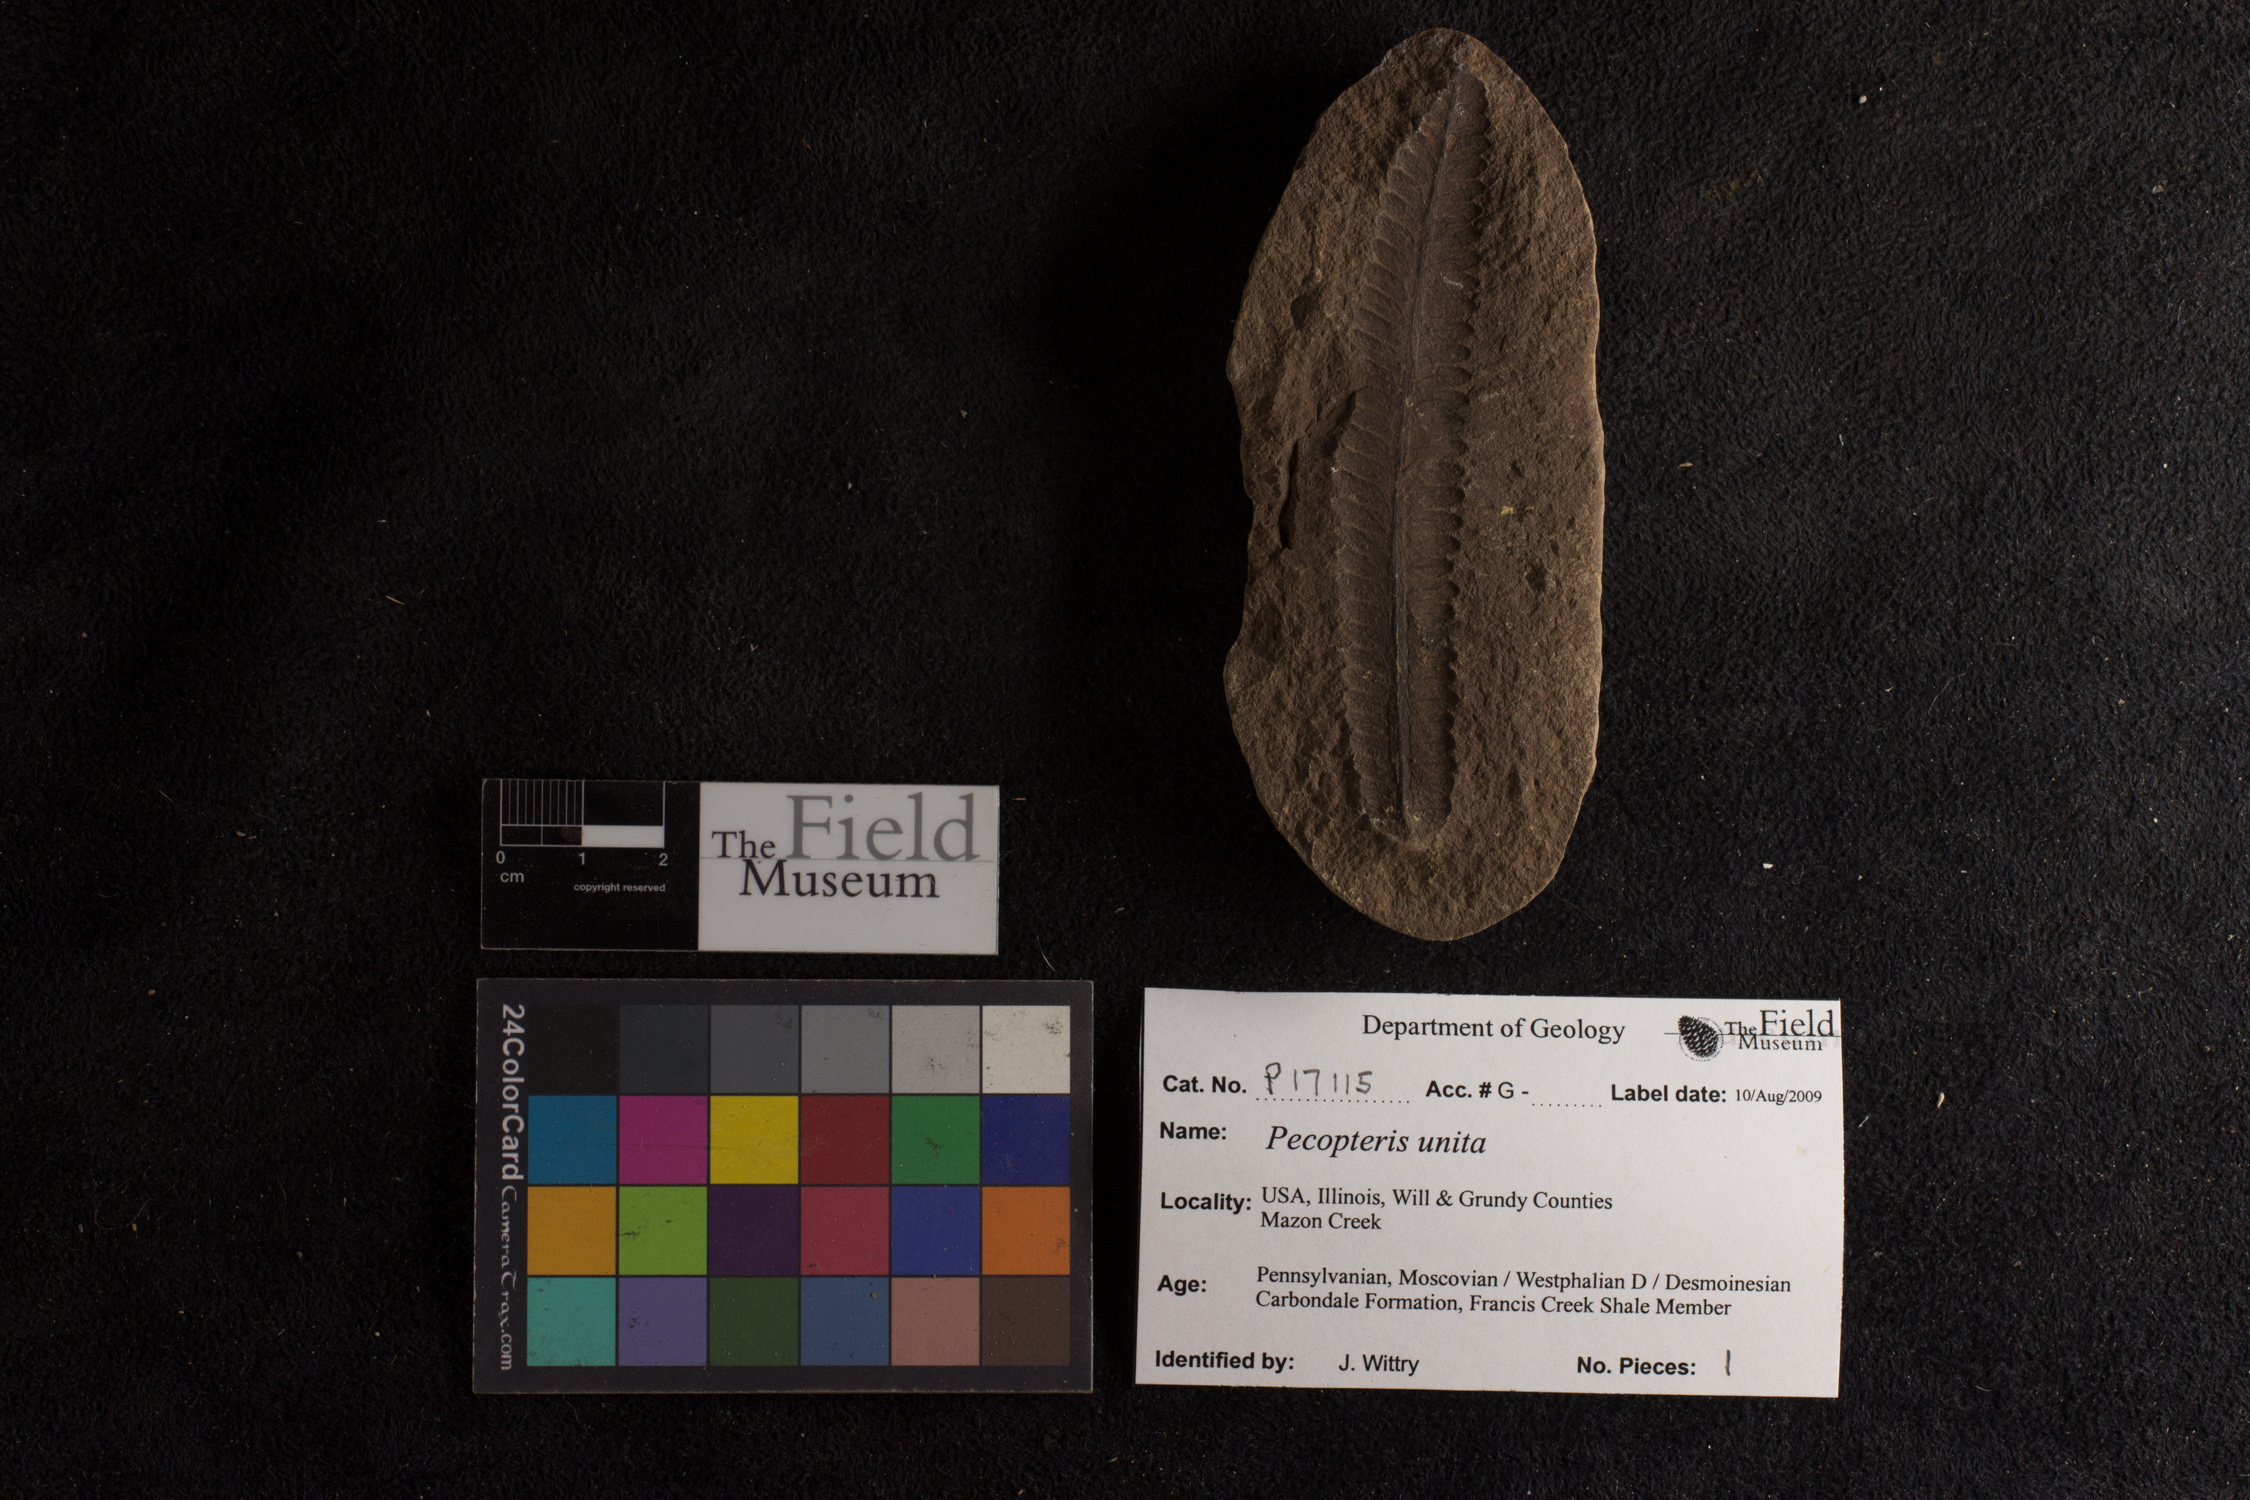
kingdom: Plantae
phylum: Tracheophyta
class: Polypodiopsida
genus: Diplazites
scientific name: Diplazites
